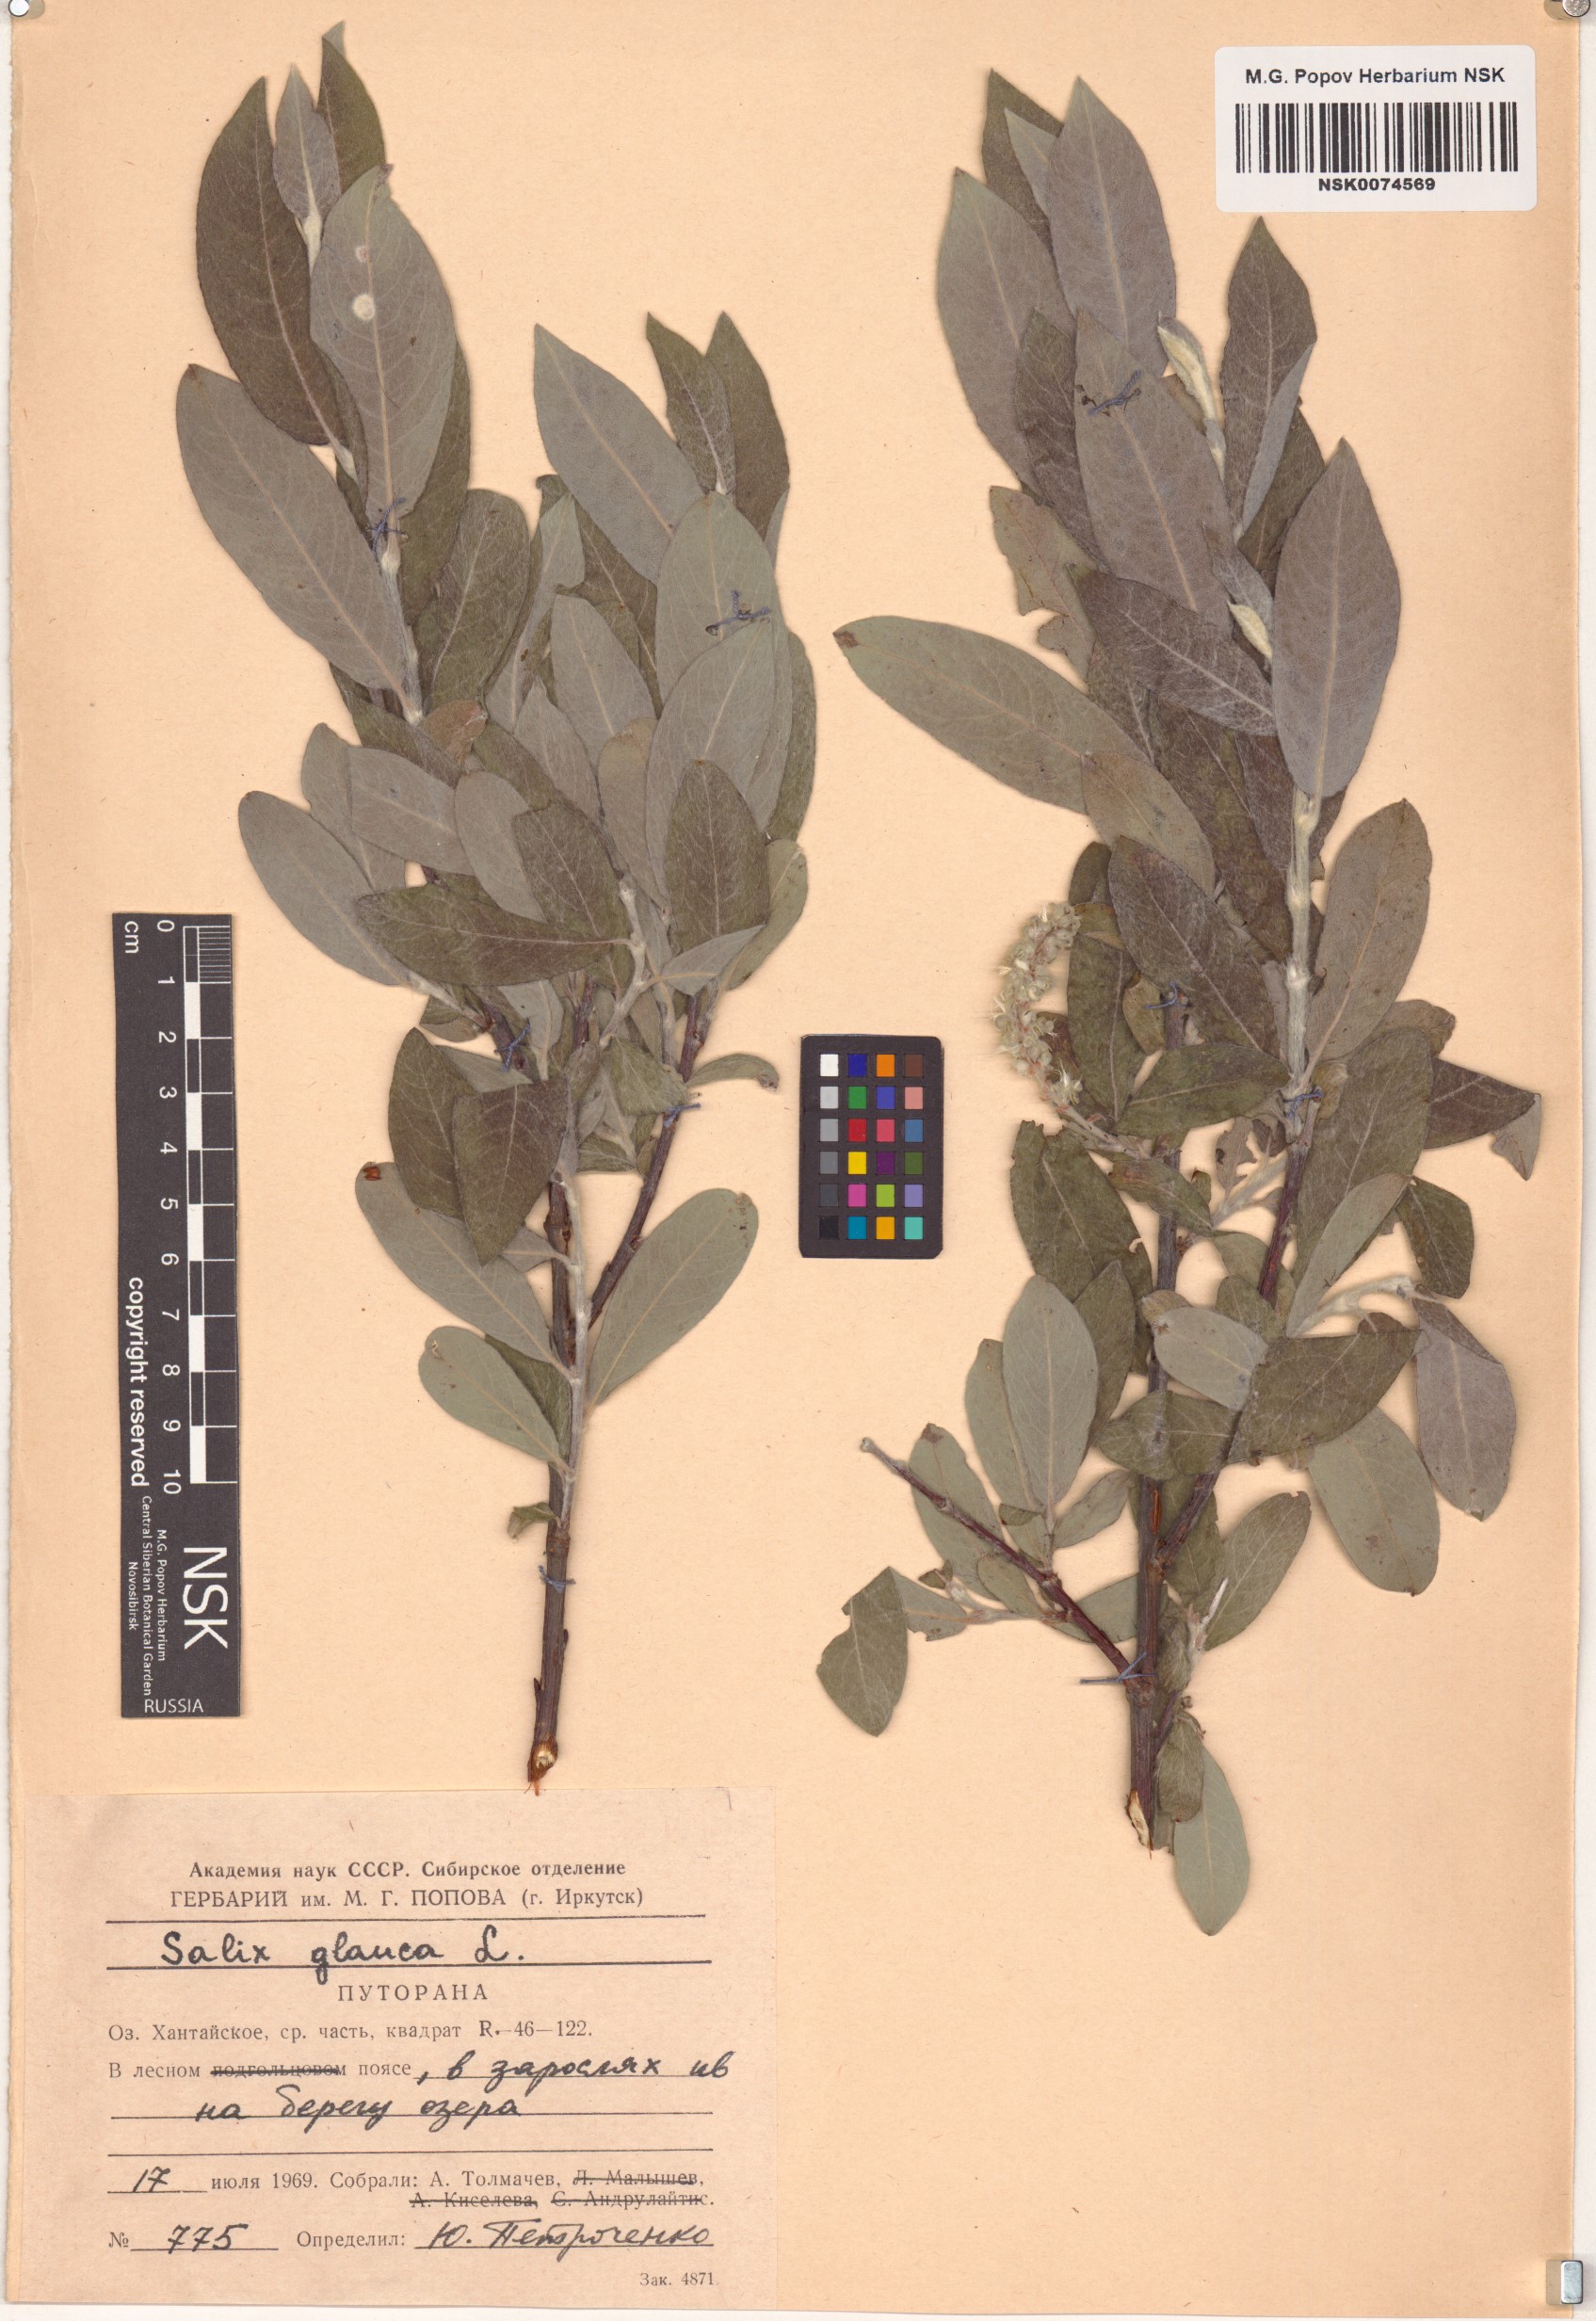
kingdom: Plantae
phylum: Tracheophyta
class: Magnoliopsida
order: Malpighiales
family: Salicaceae
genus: Salix
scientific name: Salix glauca
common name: Glaucous willow
